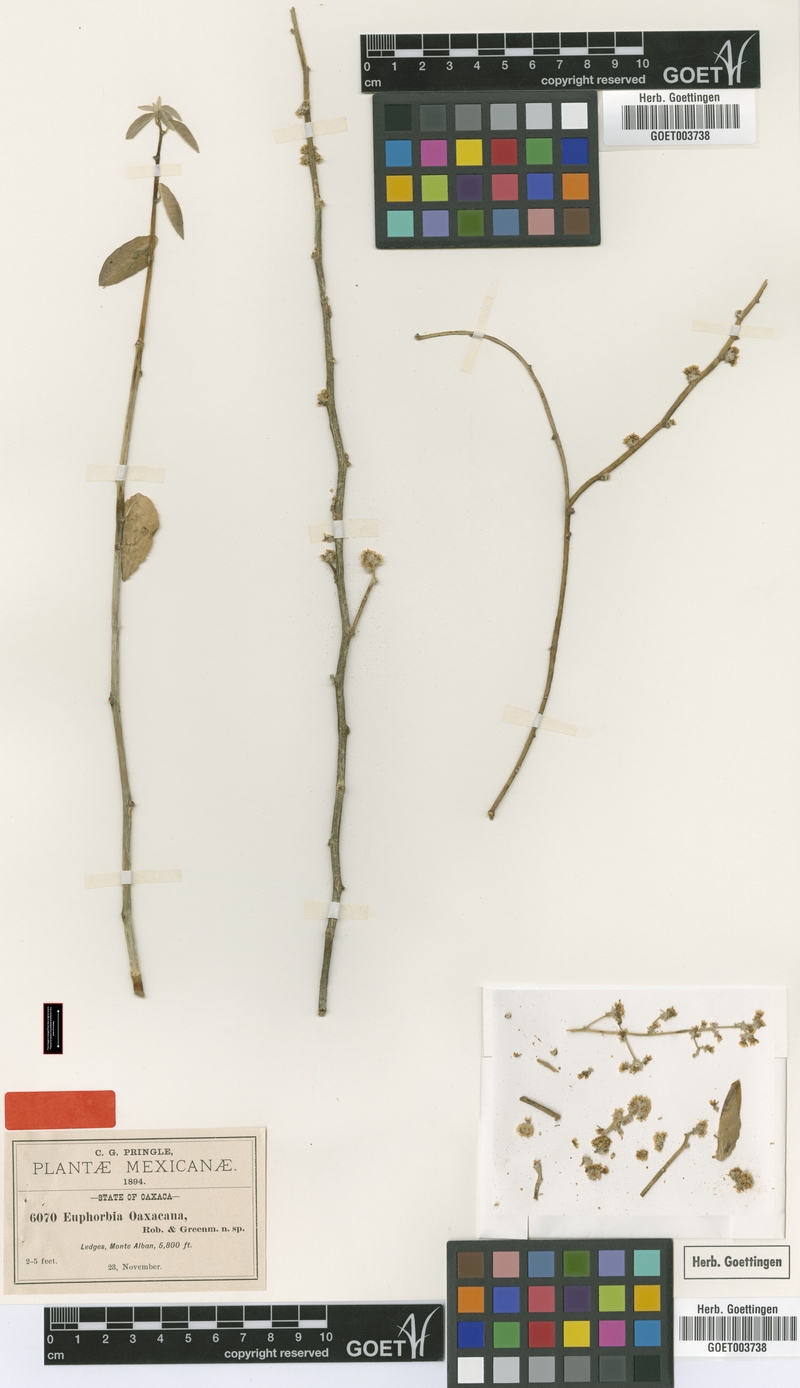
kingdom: Plantae
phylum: Tracheophyta
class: Magnoliopsida
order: Malpighiales
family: Euphorbiaceae
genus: Euphorbia
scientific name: Euphorbia oaxacana
